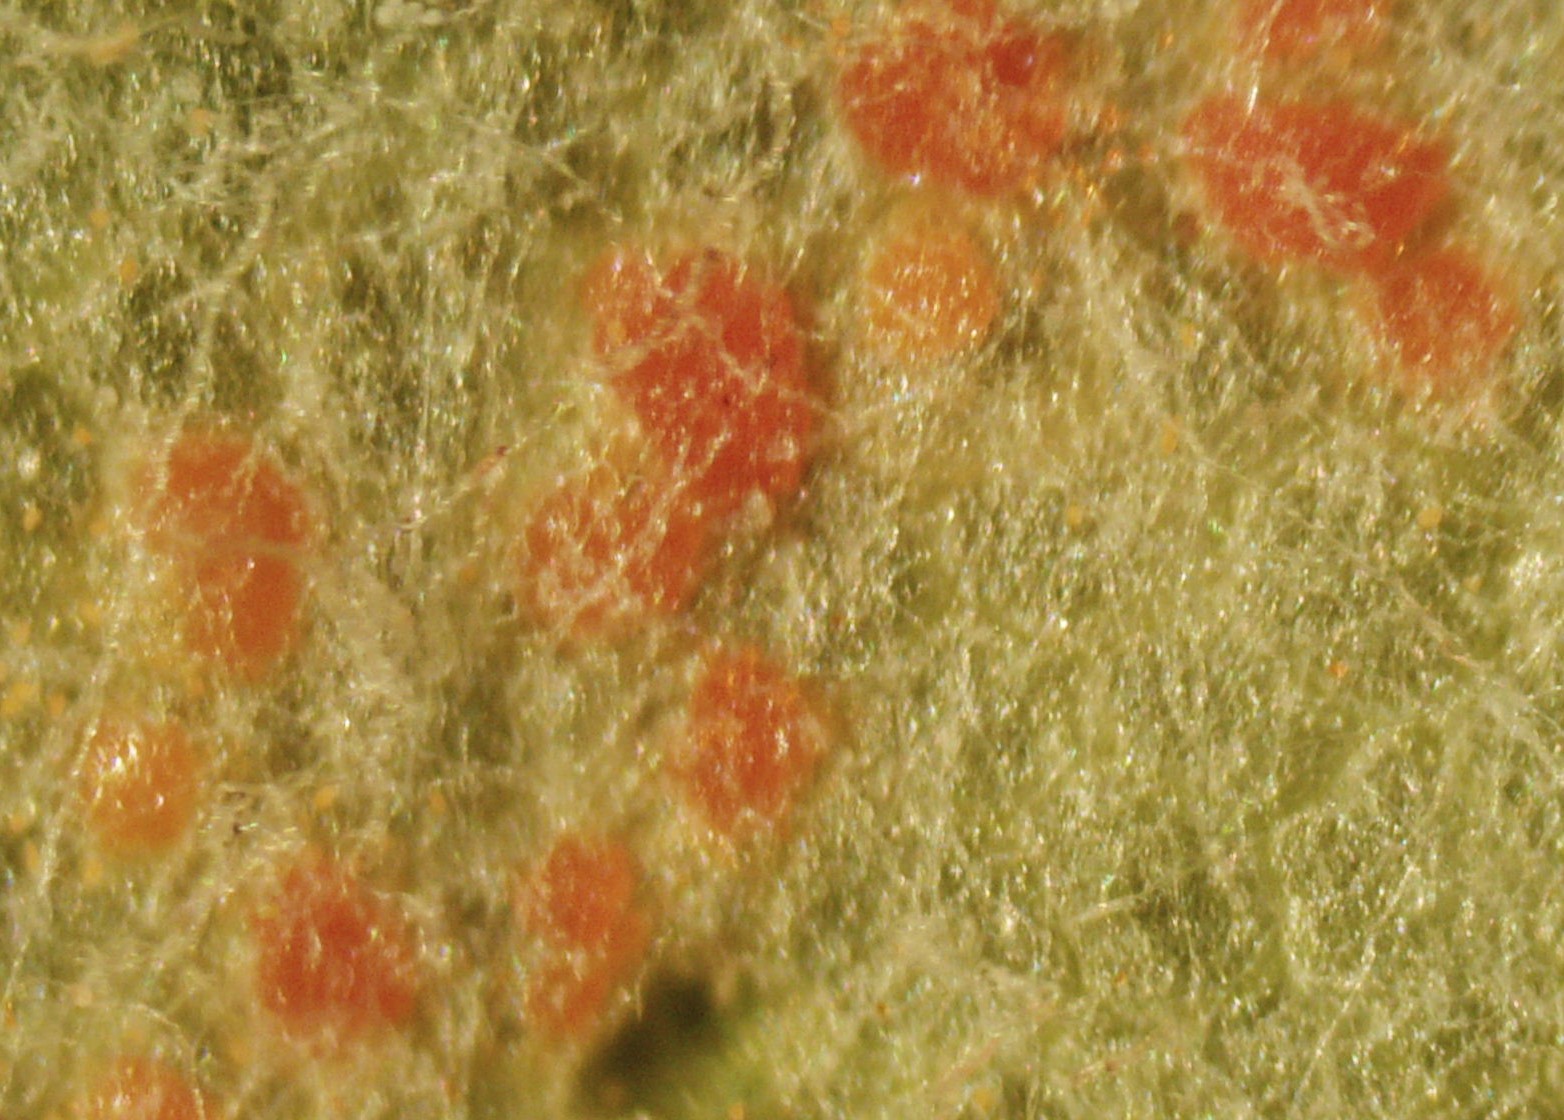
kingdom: Fungi
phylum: Basidiomycota
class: Pucciniomycetes
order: Pucciniales
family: Coleosporiaceae
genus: Coleosporium
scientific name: Coleosporium tussilaginis
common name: almindelig fyrrenålerust
